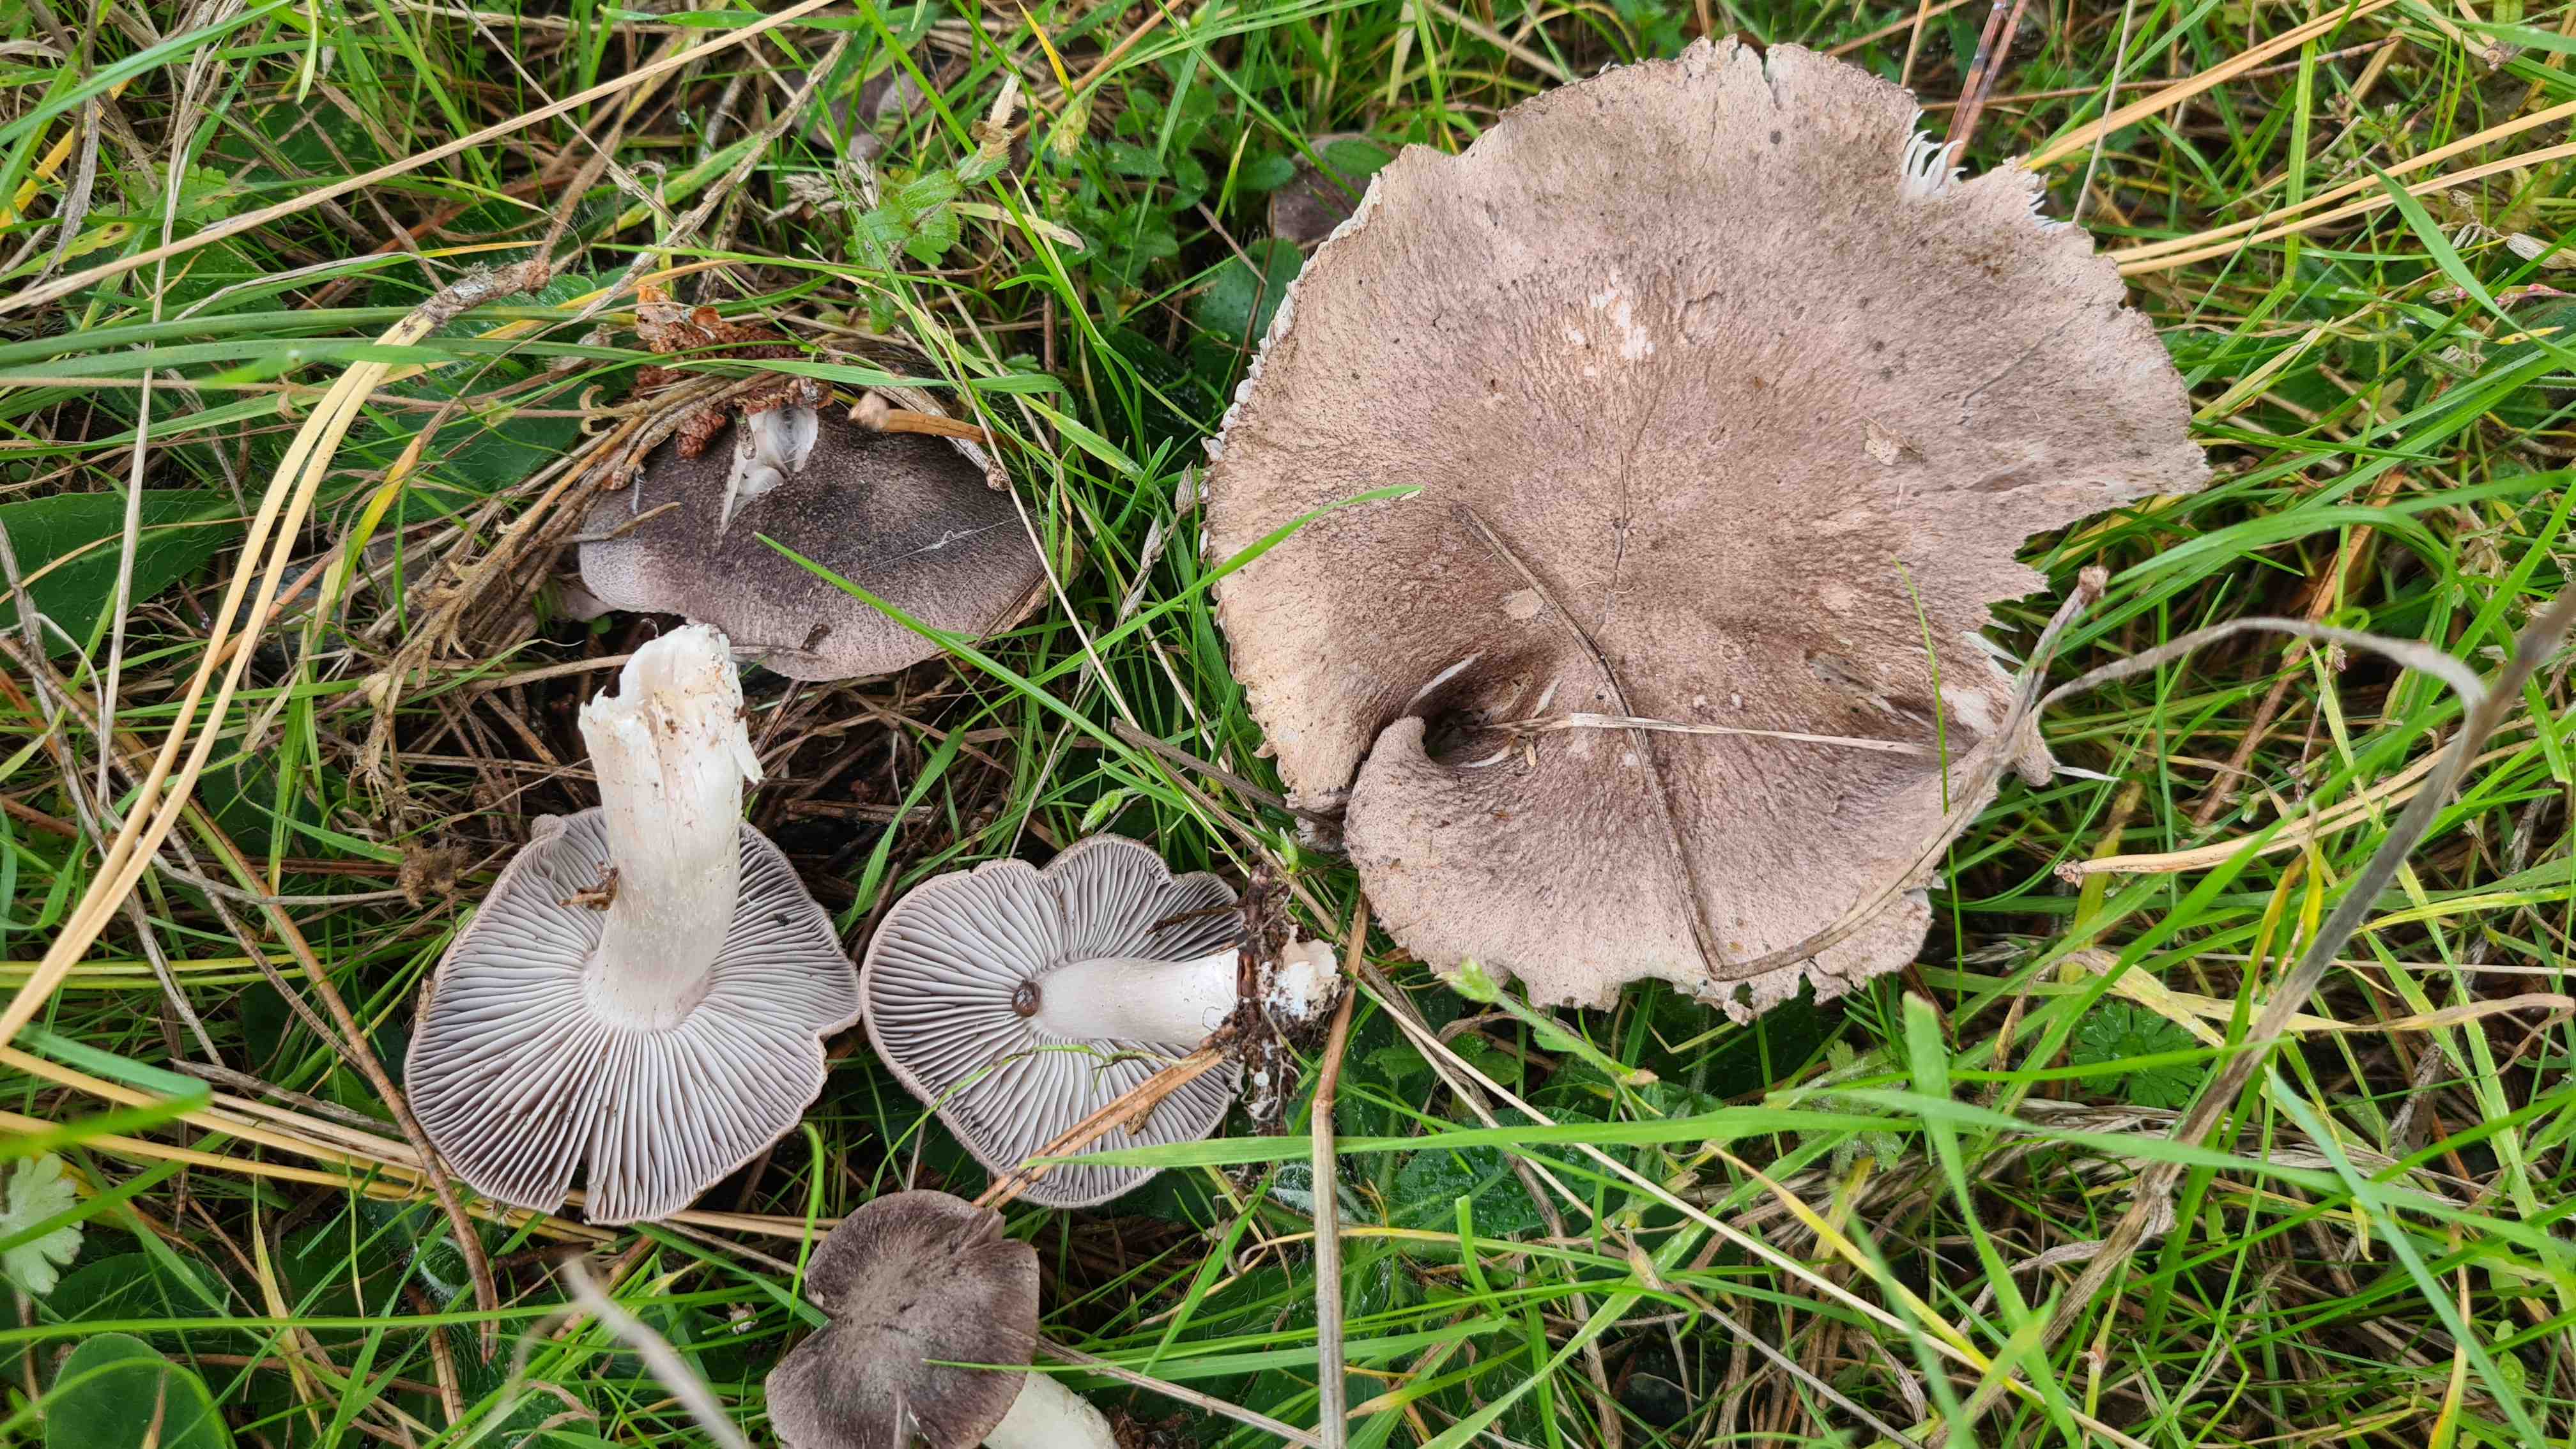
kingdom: Fungi
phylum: Basidiomycota
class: Agaricomycetes
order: Agaricales
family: Tricholomataceae
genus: Tricholoma
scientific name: Tricholoma terreum
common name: jordfarvet ridderhat
